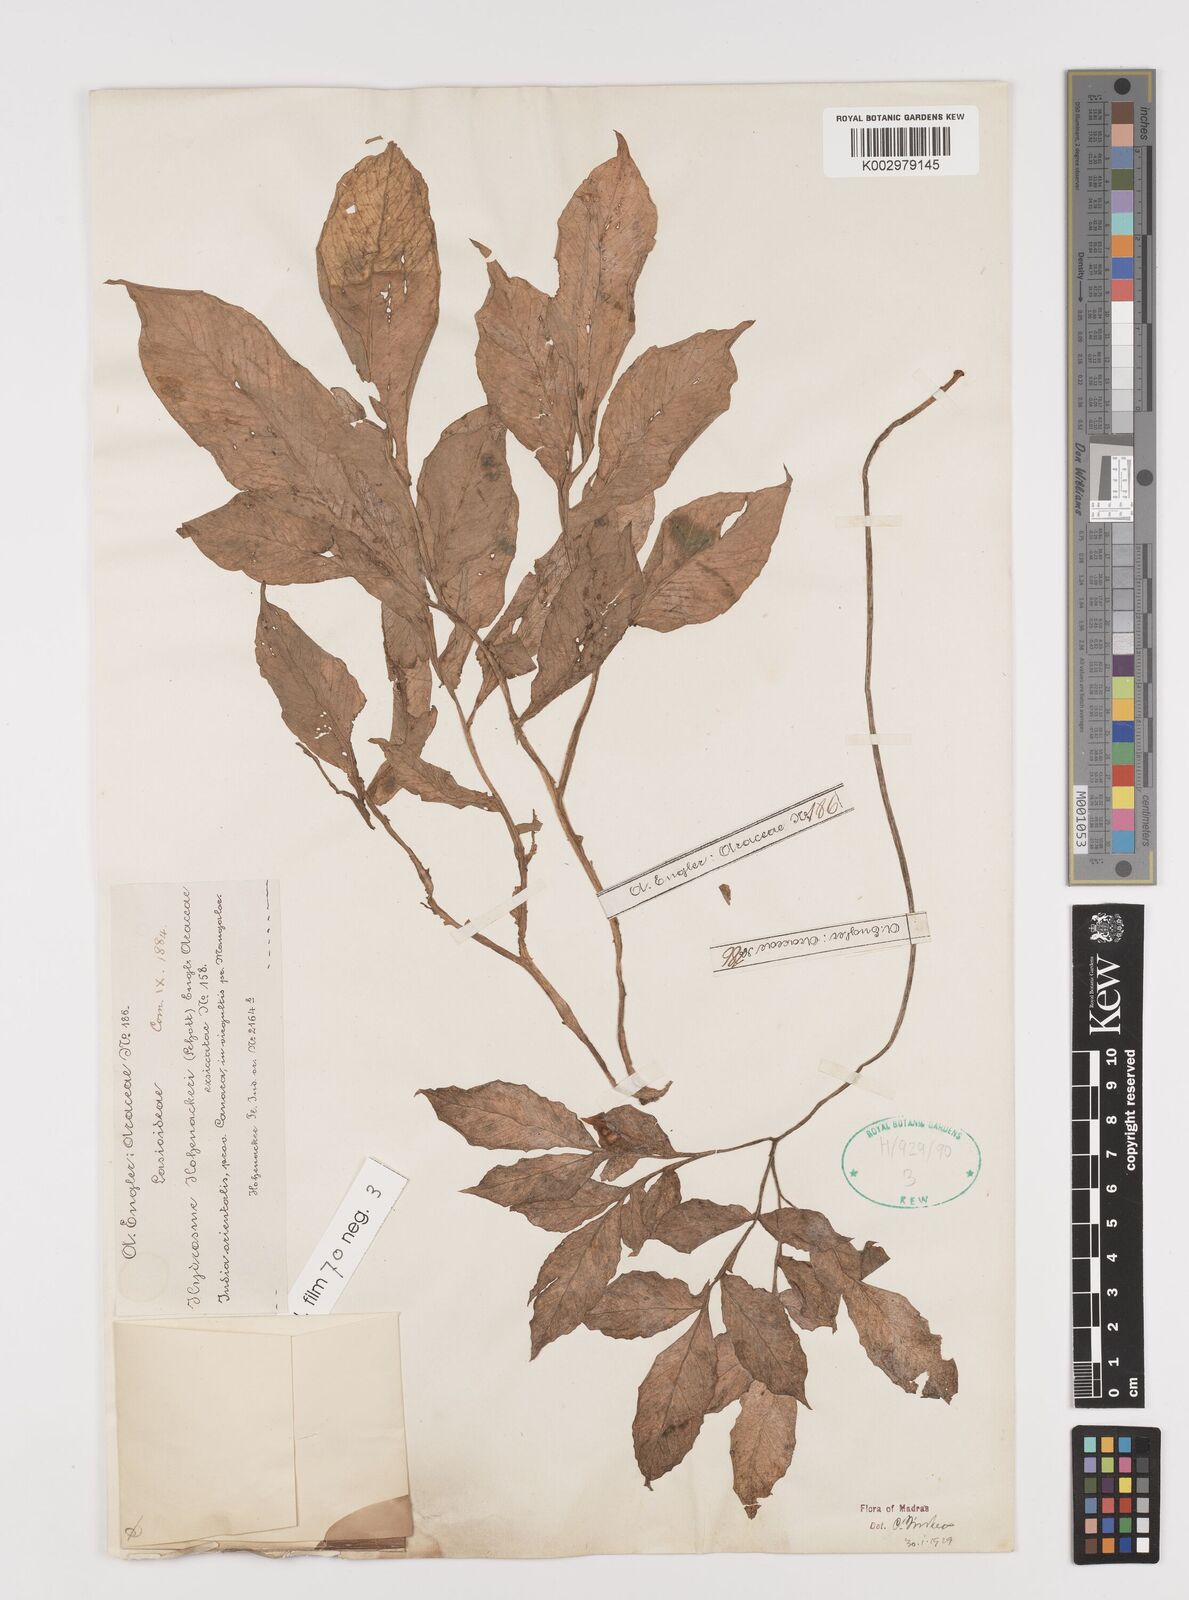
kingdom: Plantae
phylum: Tracheophyta
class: Liliopsida
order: Alismatales
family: Araceae
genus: Amorphophallus
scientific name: Amorphophallus hohenackeri
